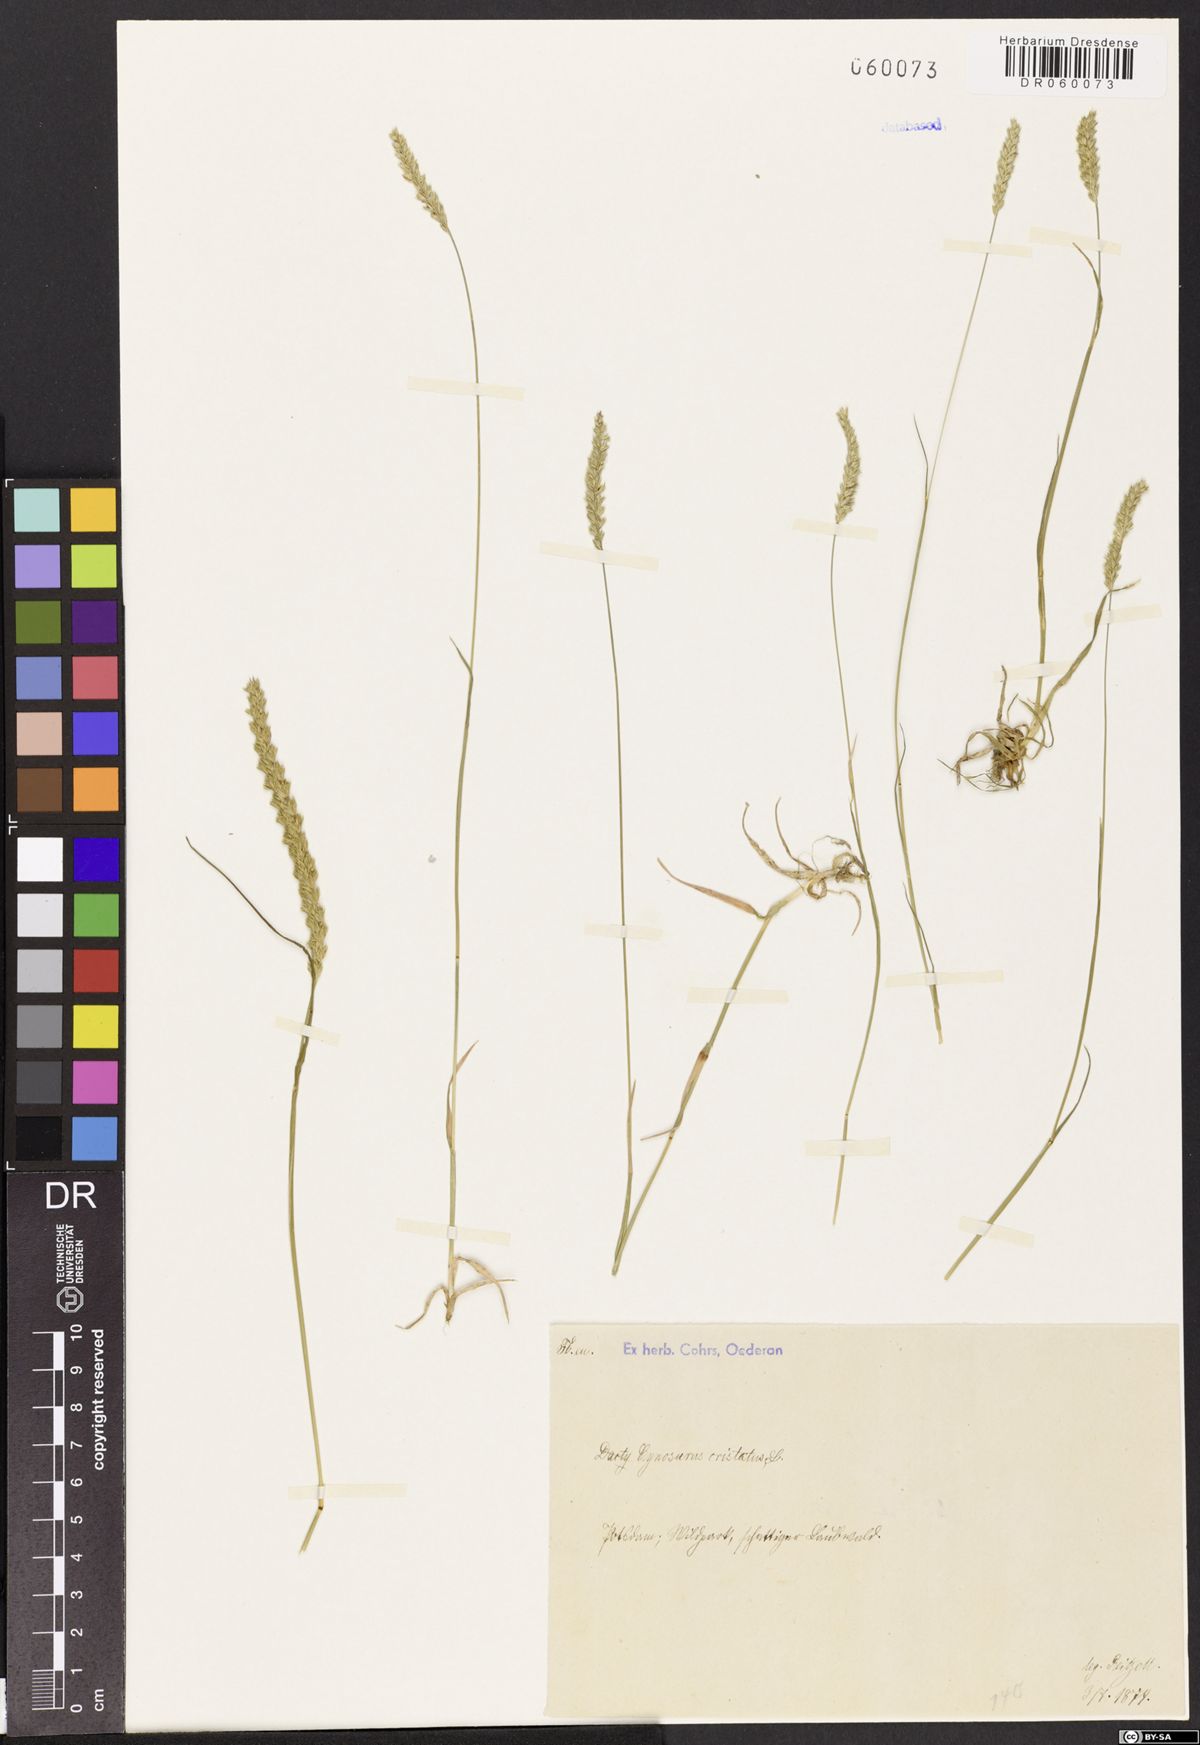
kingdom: Plantae
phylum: Tracheophyta
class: Liliopsida
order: Poales
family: Poaceae
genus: Cynosurus
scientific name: Cynosurus cristatus
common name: Crested dog's-tail
